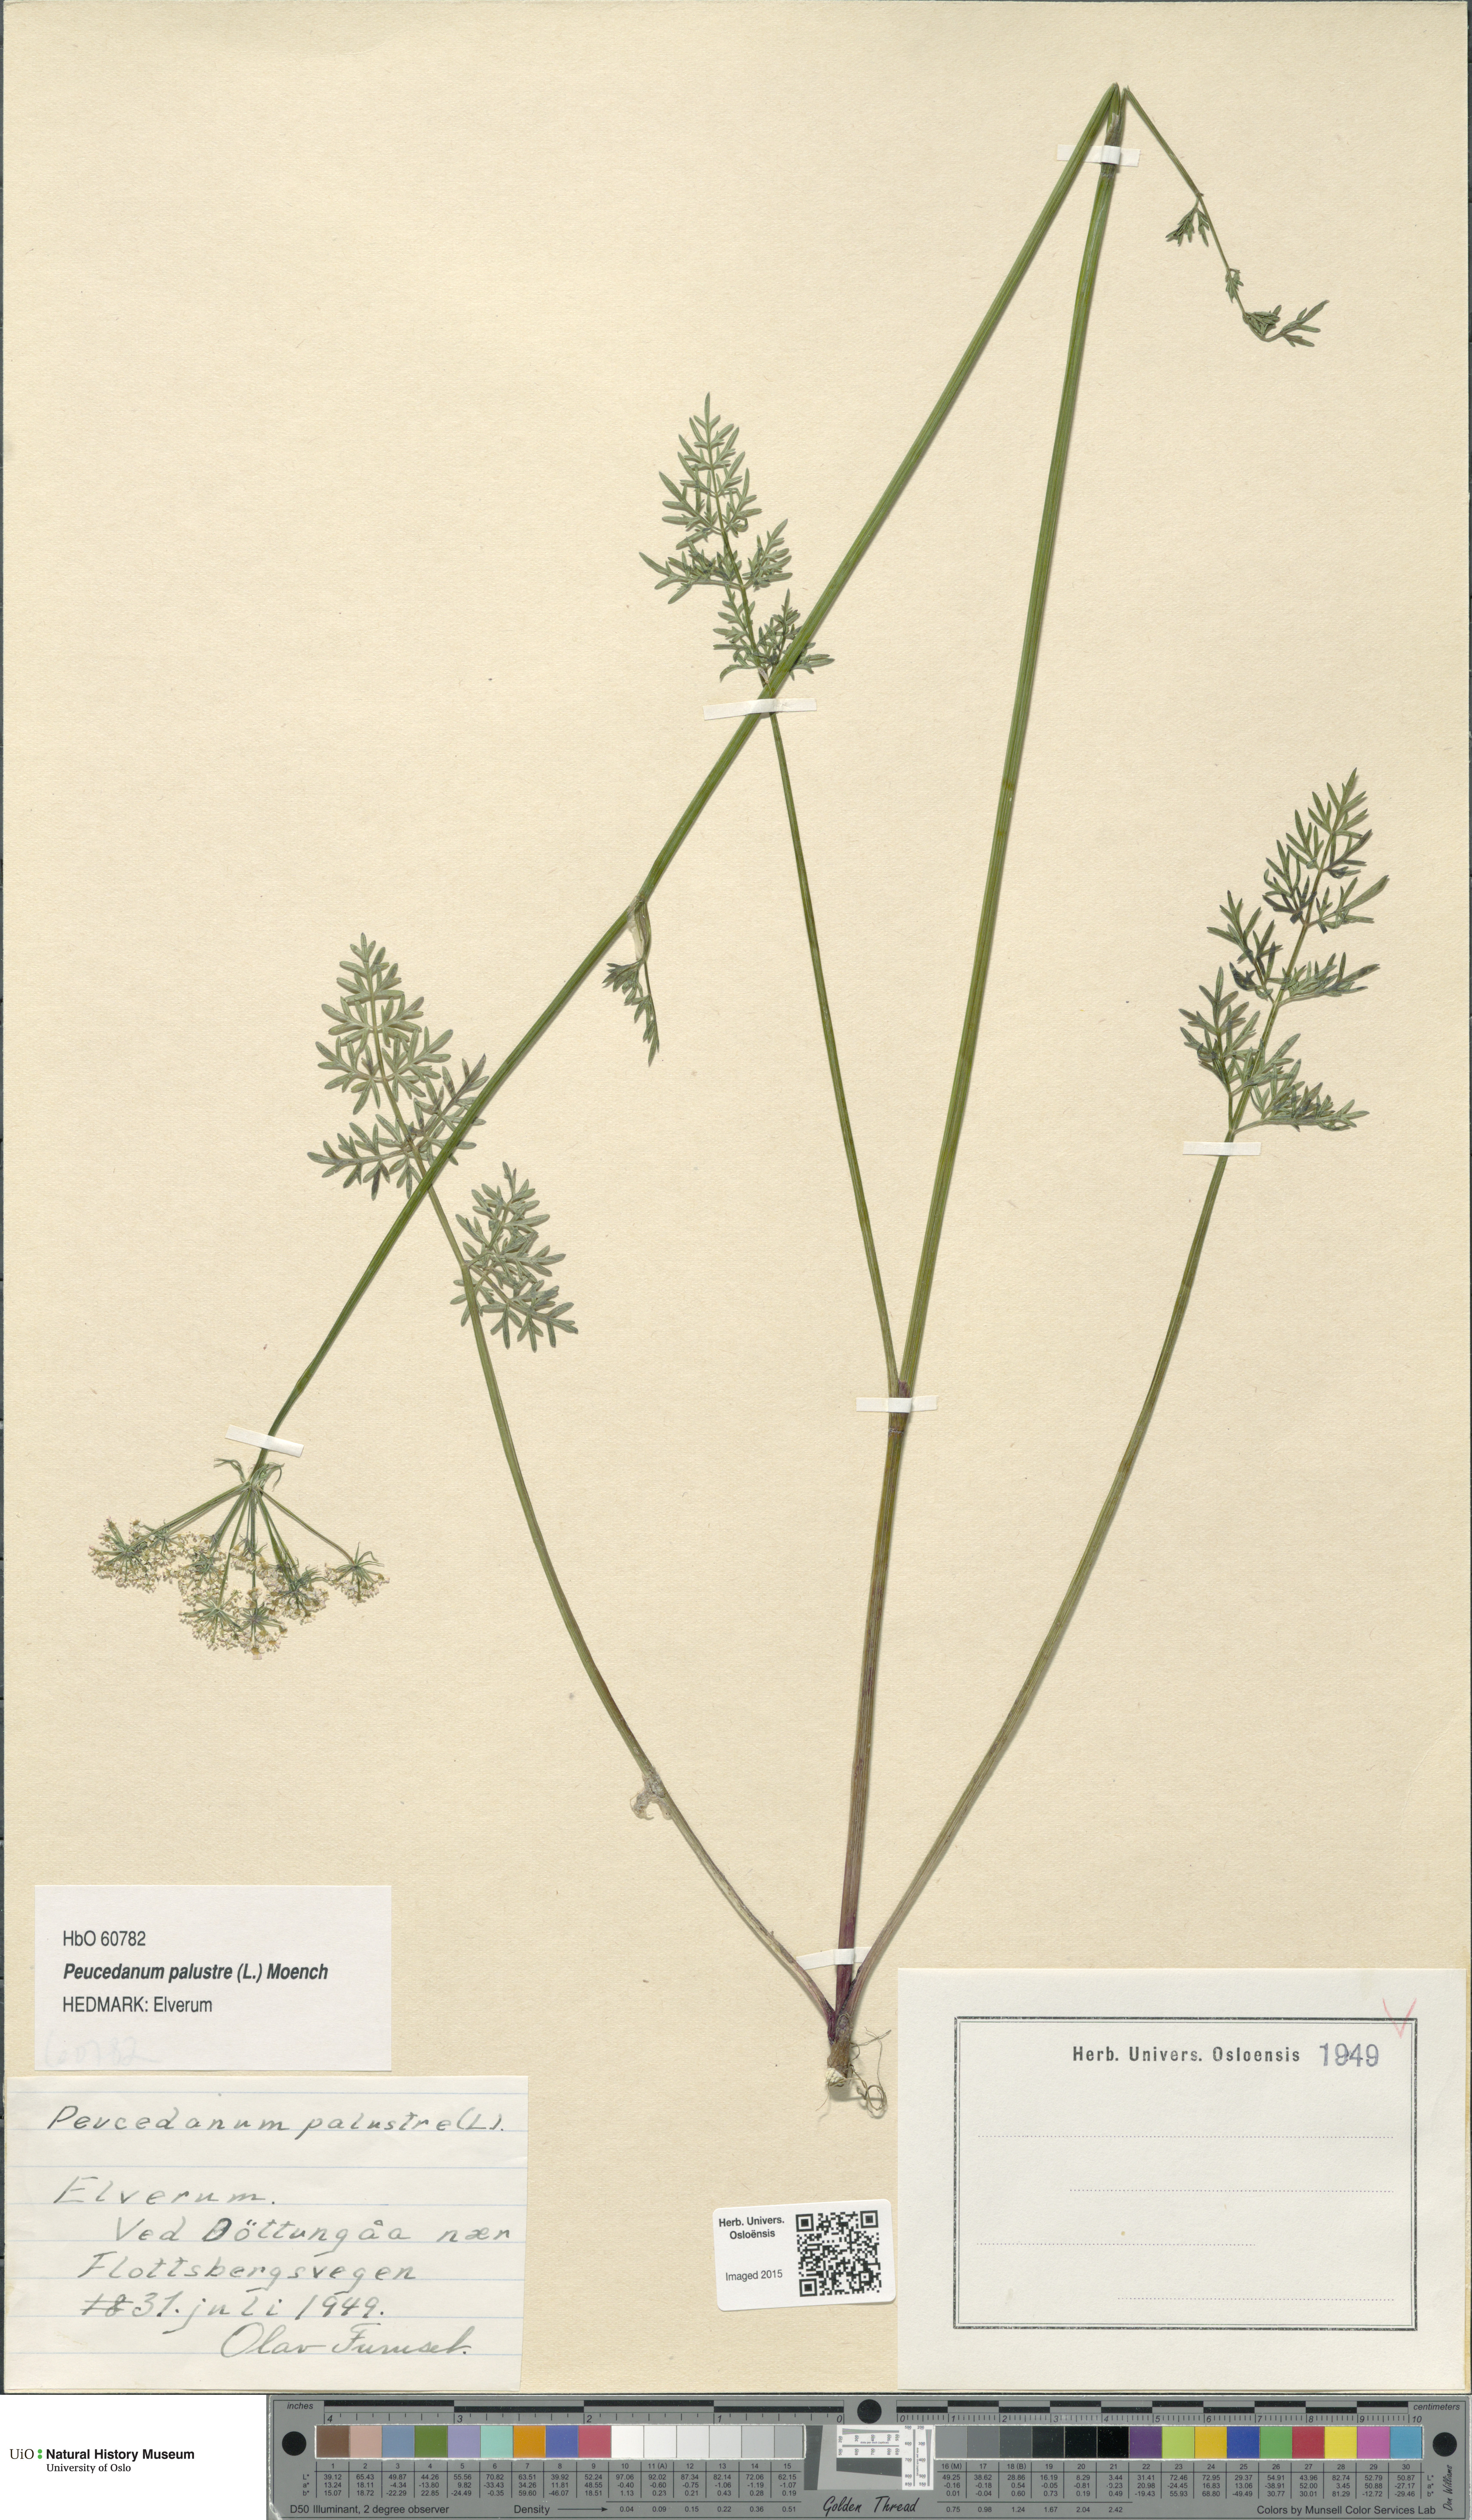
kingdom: Plantae
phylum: Tracheophyta
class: Magnoliopsida
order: Apiales
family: Apiaceae
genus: Thysselinum
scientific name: Thysselinum palustre
